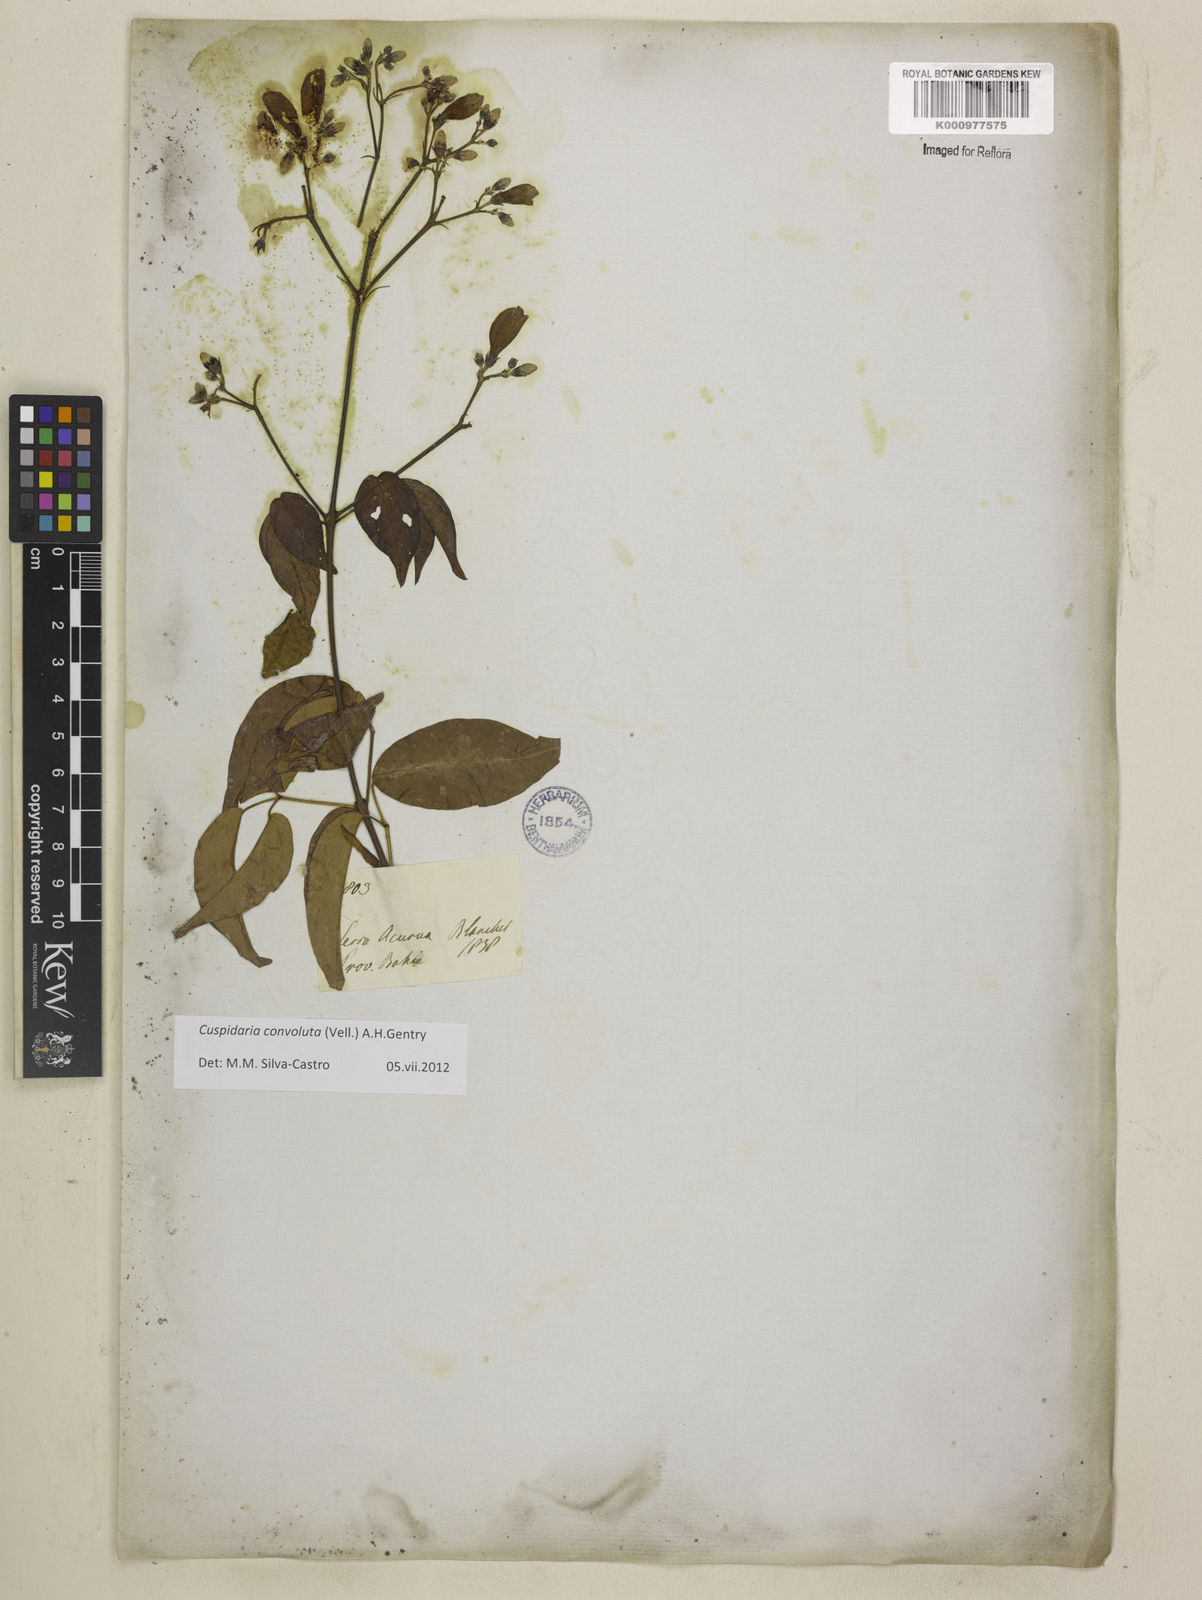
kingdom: Plantae
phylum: Tracheophyta
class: Magnoliopsida
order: Lamiales
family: Bignoniaceae
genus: Cuspidaria
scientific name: Cuspidaria convoluta
